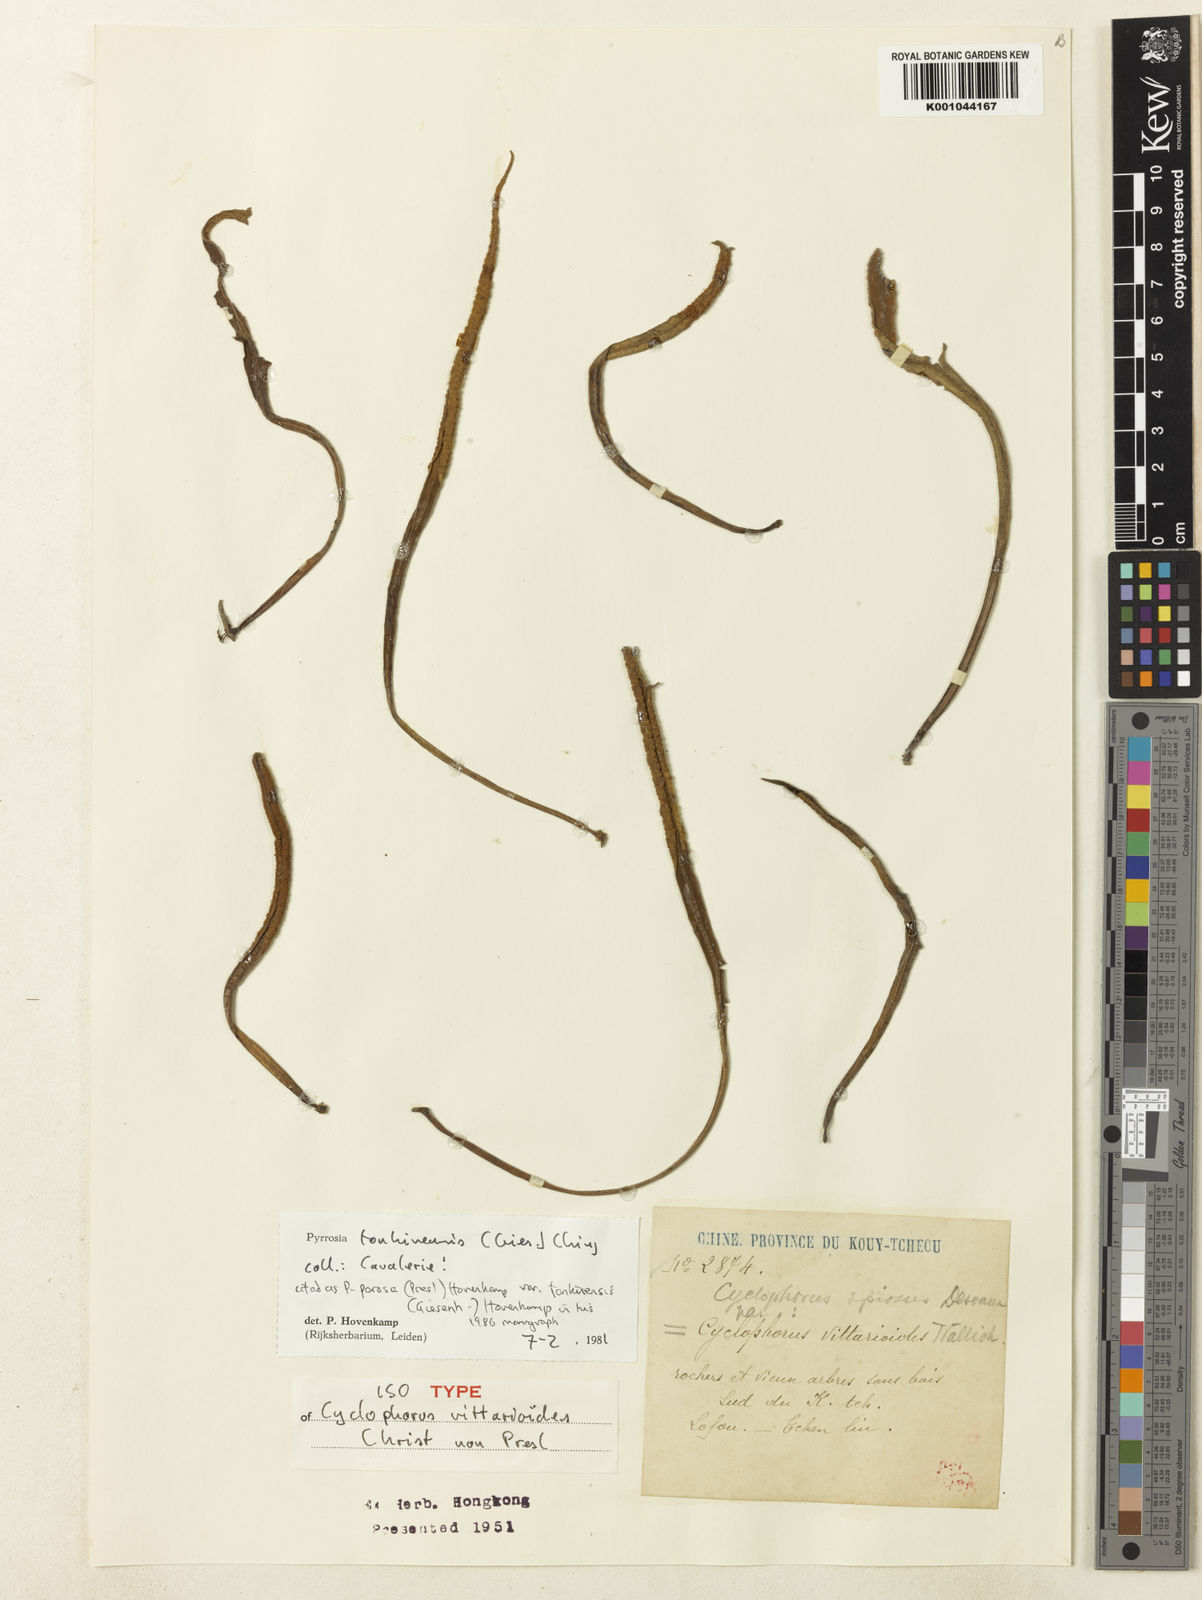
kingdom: Plantae
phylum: Tracheophyta
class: Polypodiopsida
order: Polypodiales
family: Polypodiaceae
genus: Pyrrosia
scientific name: Pyrrosia stenophylla
